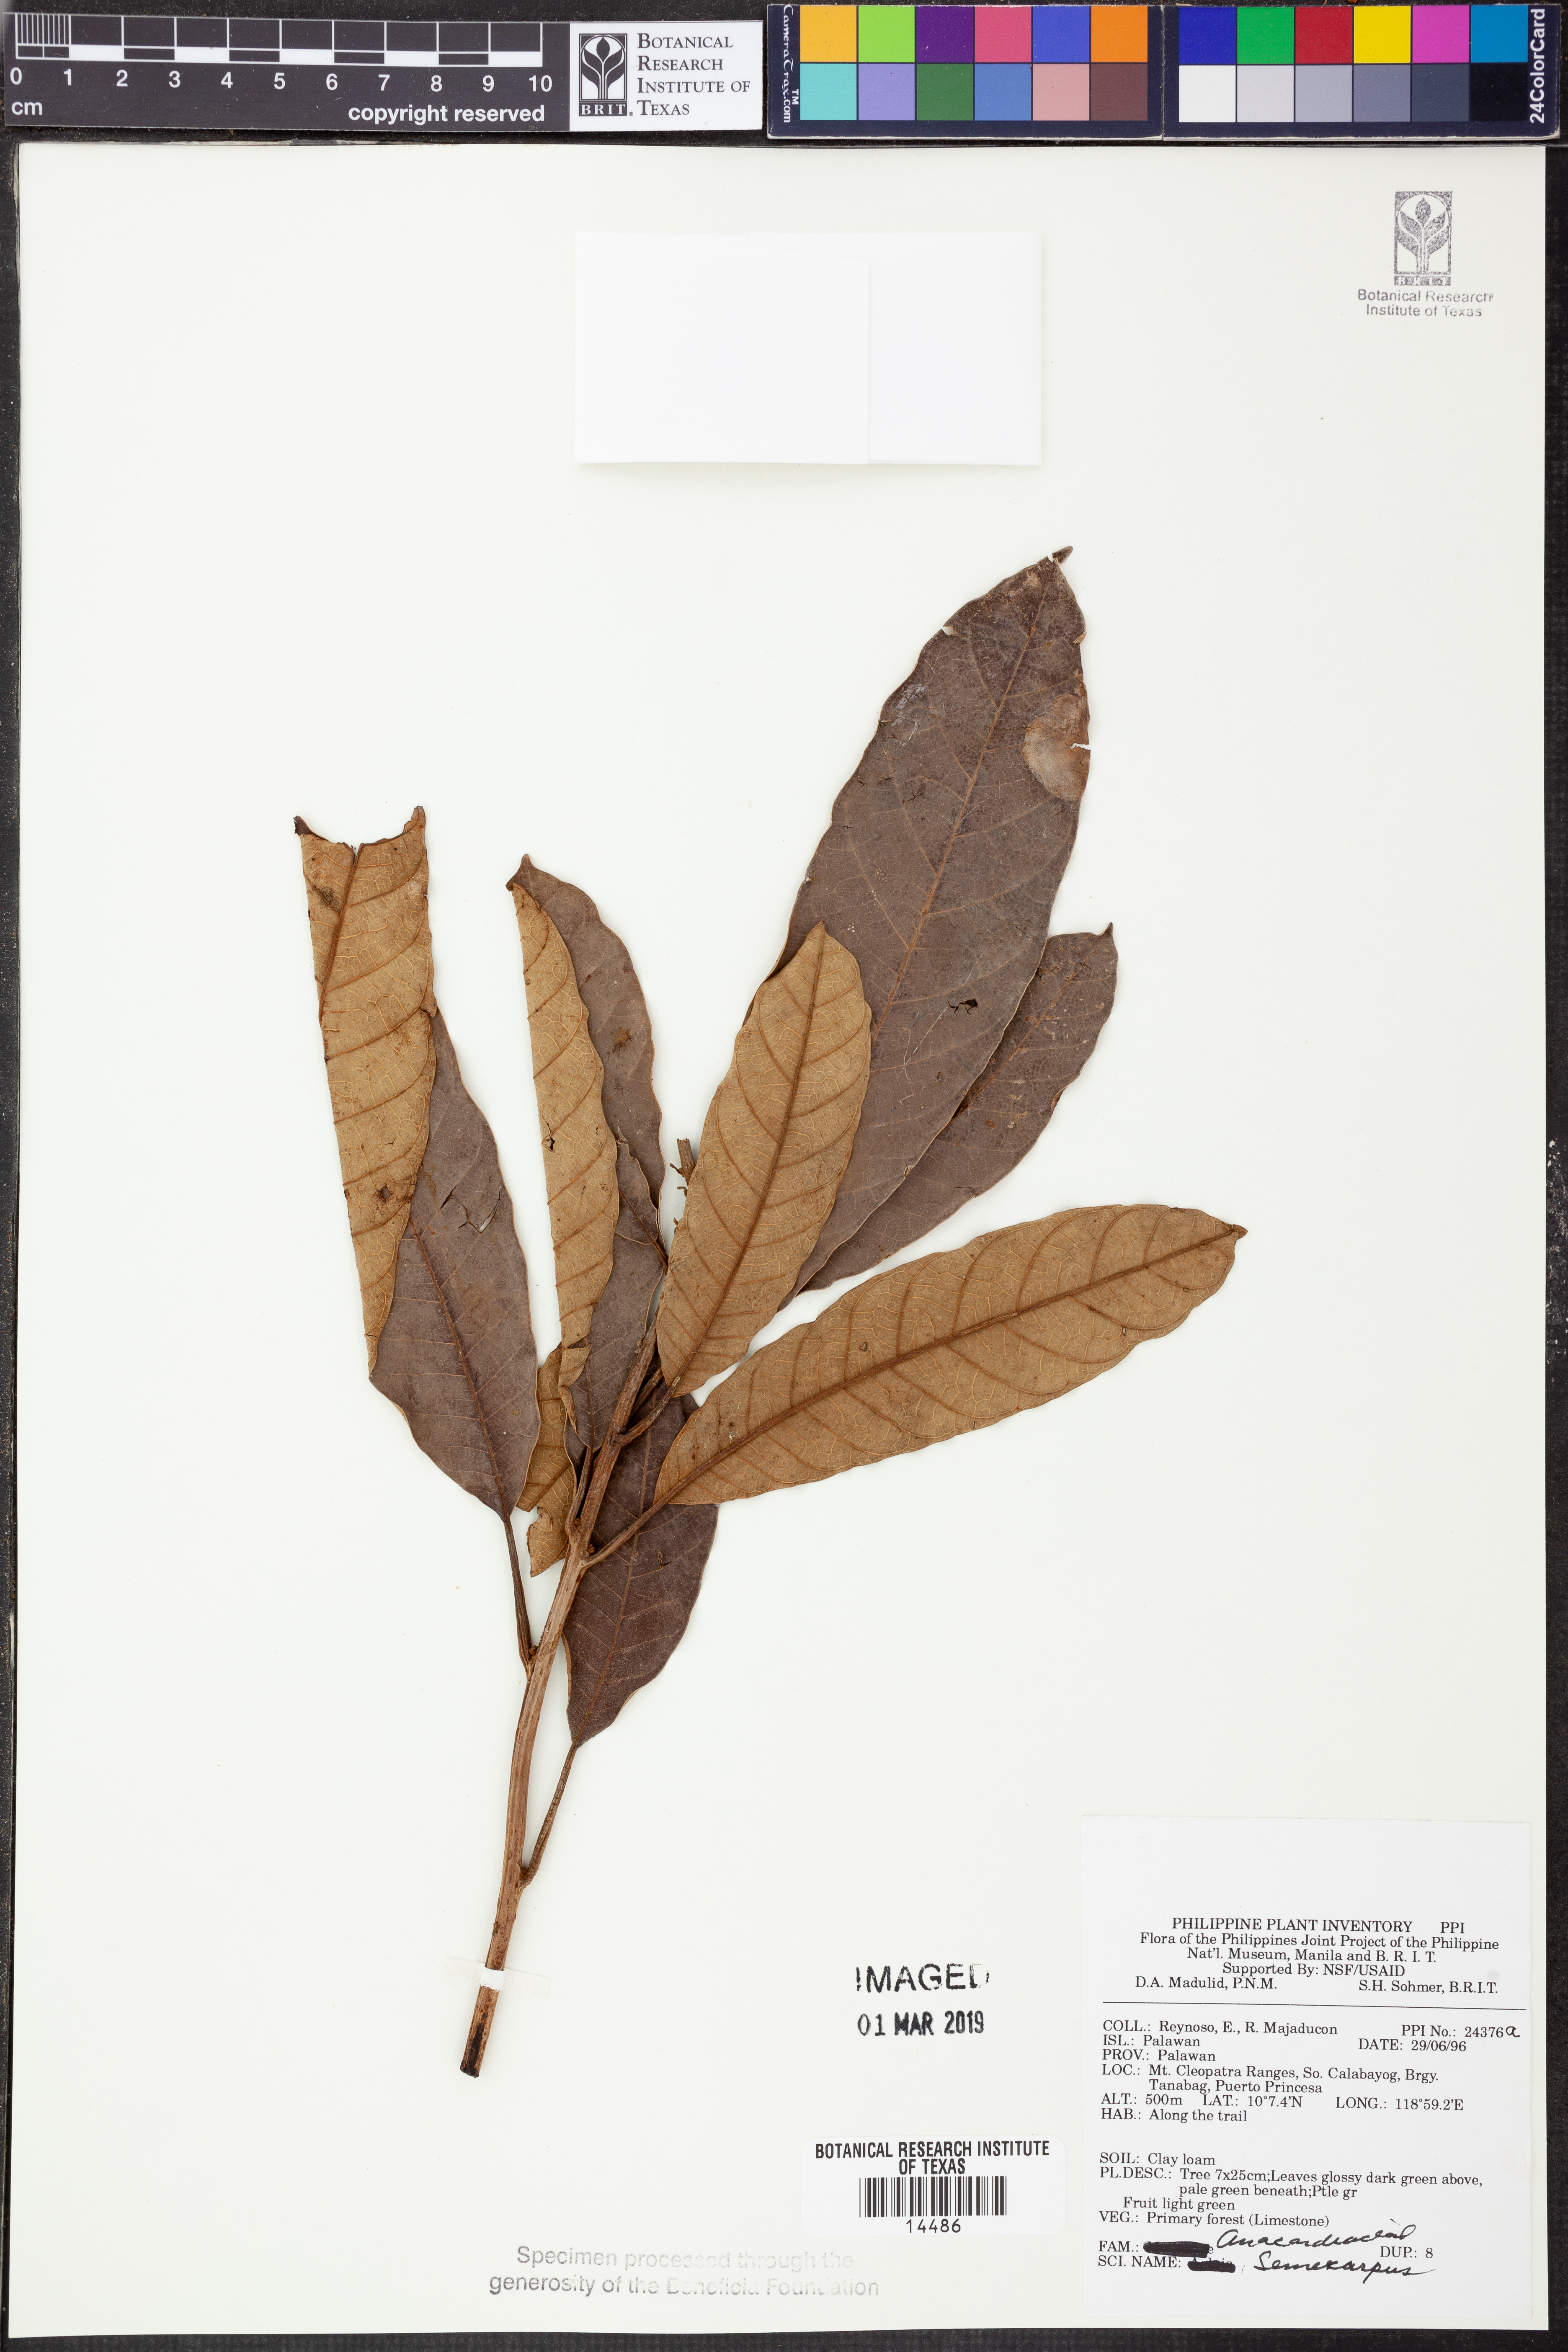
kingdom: Plantae
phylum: Tracheophyta
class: Magnoliopsida
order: Sapindales
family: Anacardiaceae
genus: Semecarpus
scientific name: Semecarpus
